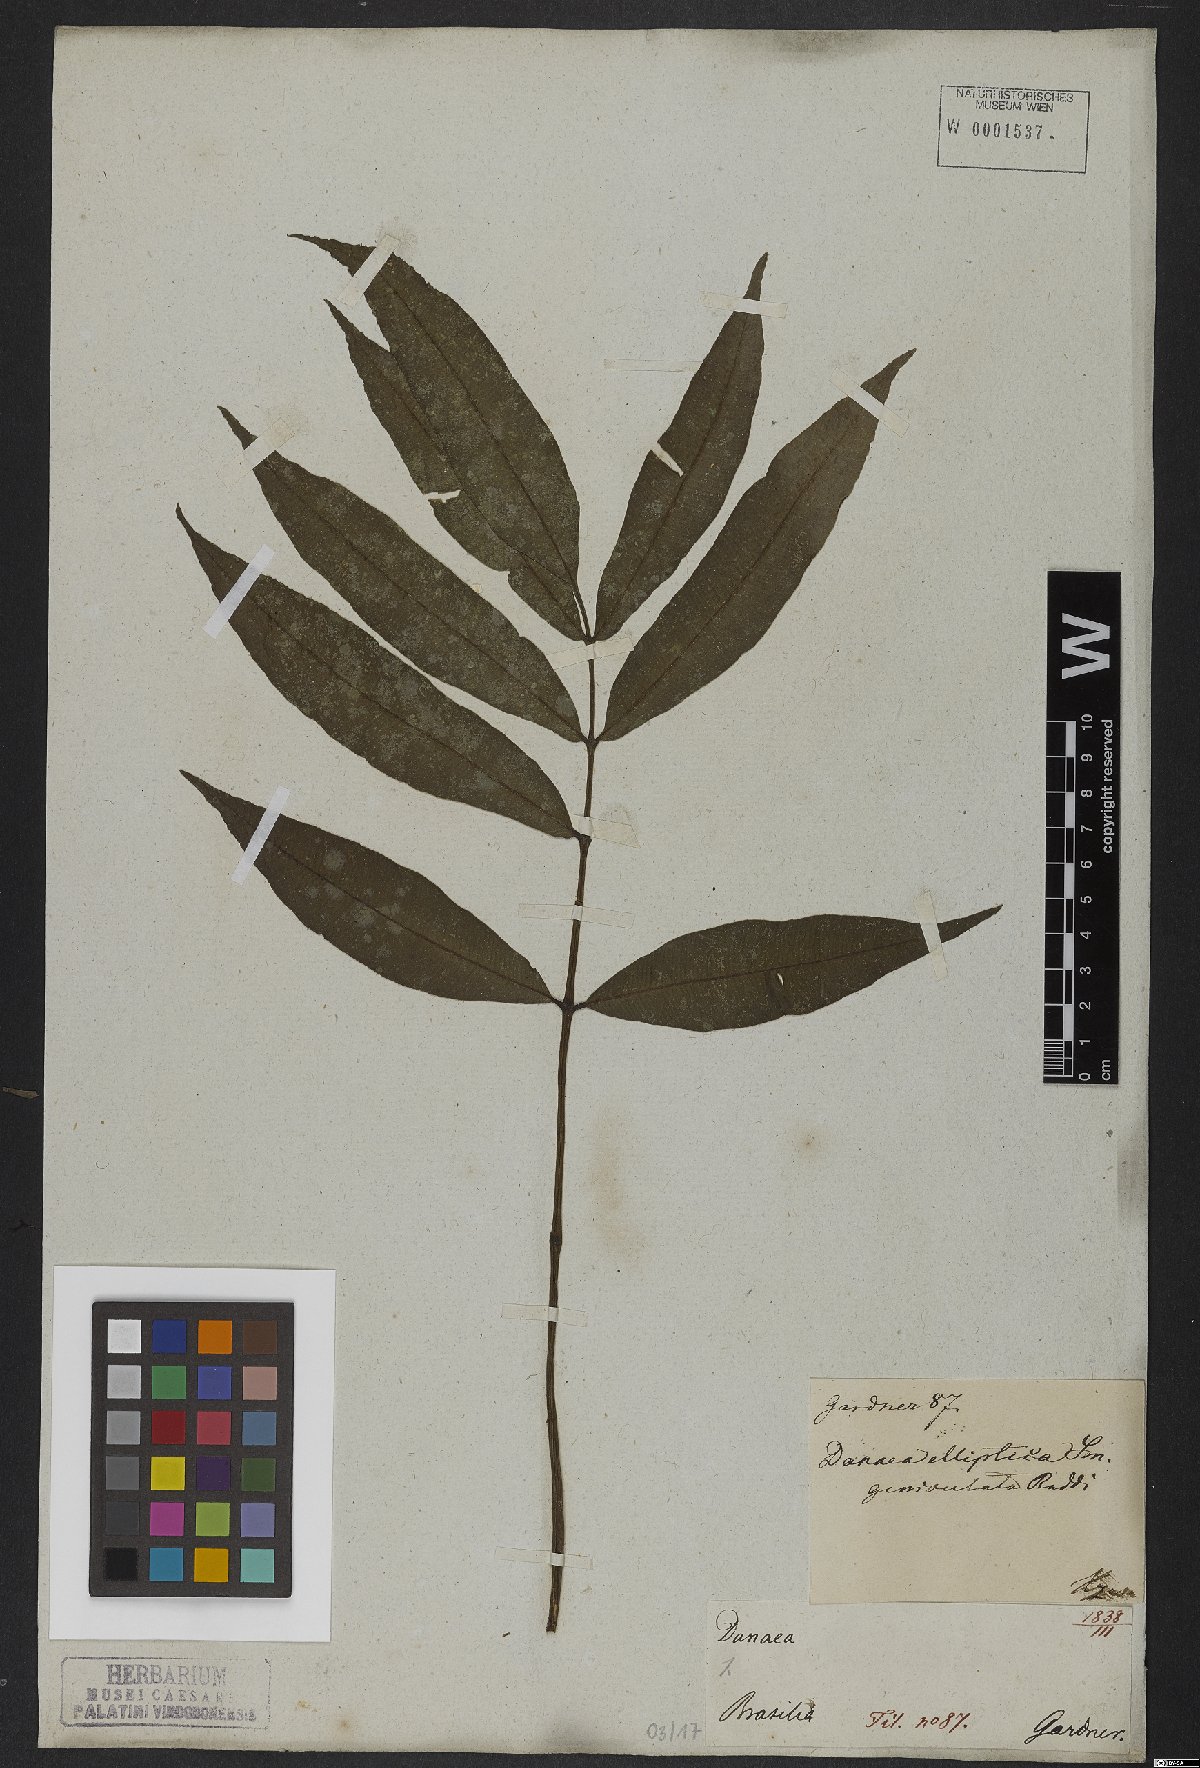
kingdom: Plantae
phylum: Tracheophyta
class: Polypodiopsida
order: Marattiales
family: Marattiaceae
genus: Danaea
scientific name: Danaea nodosa
